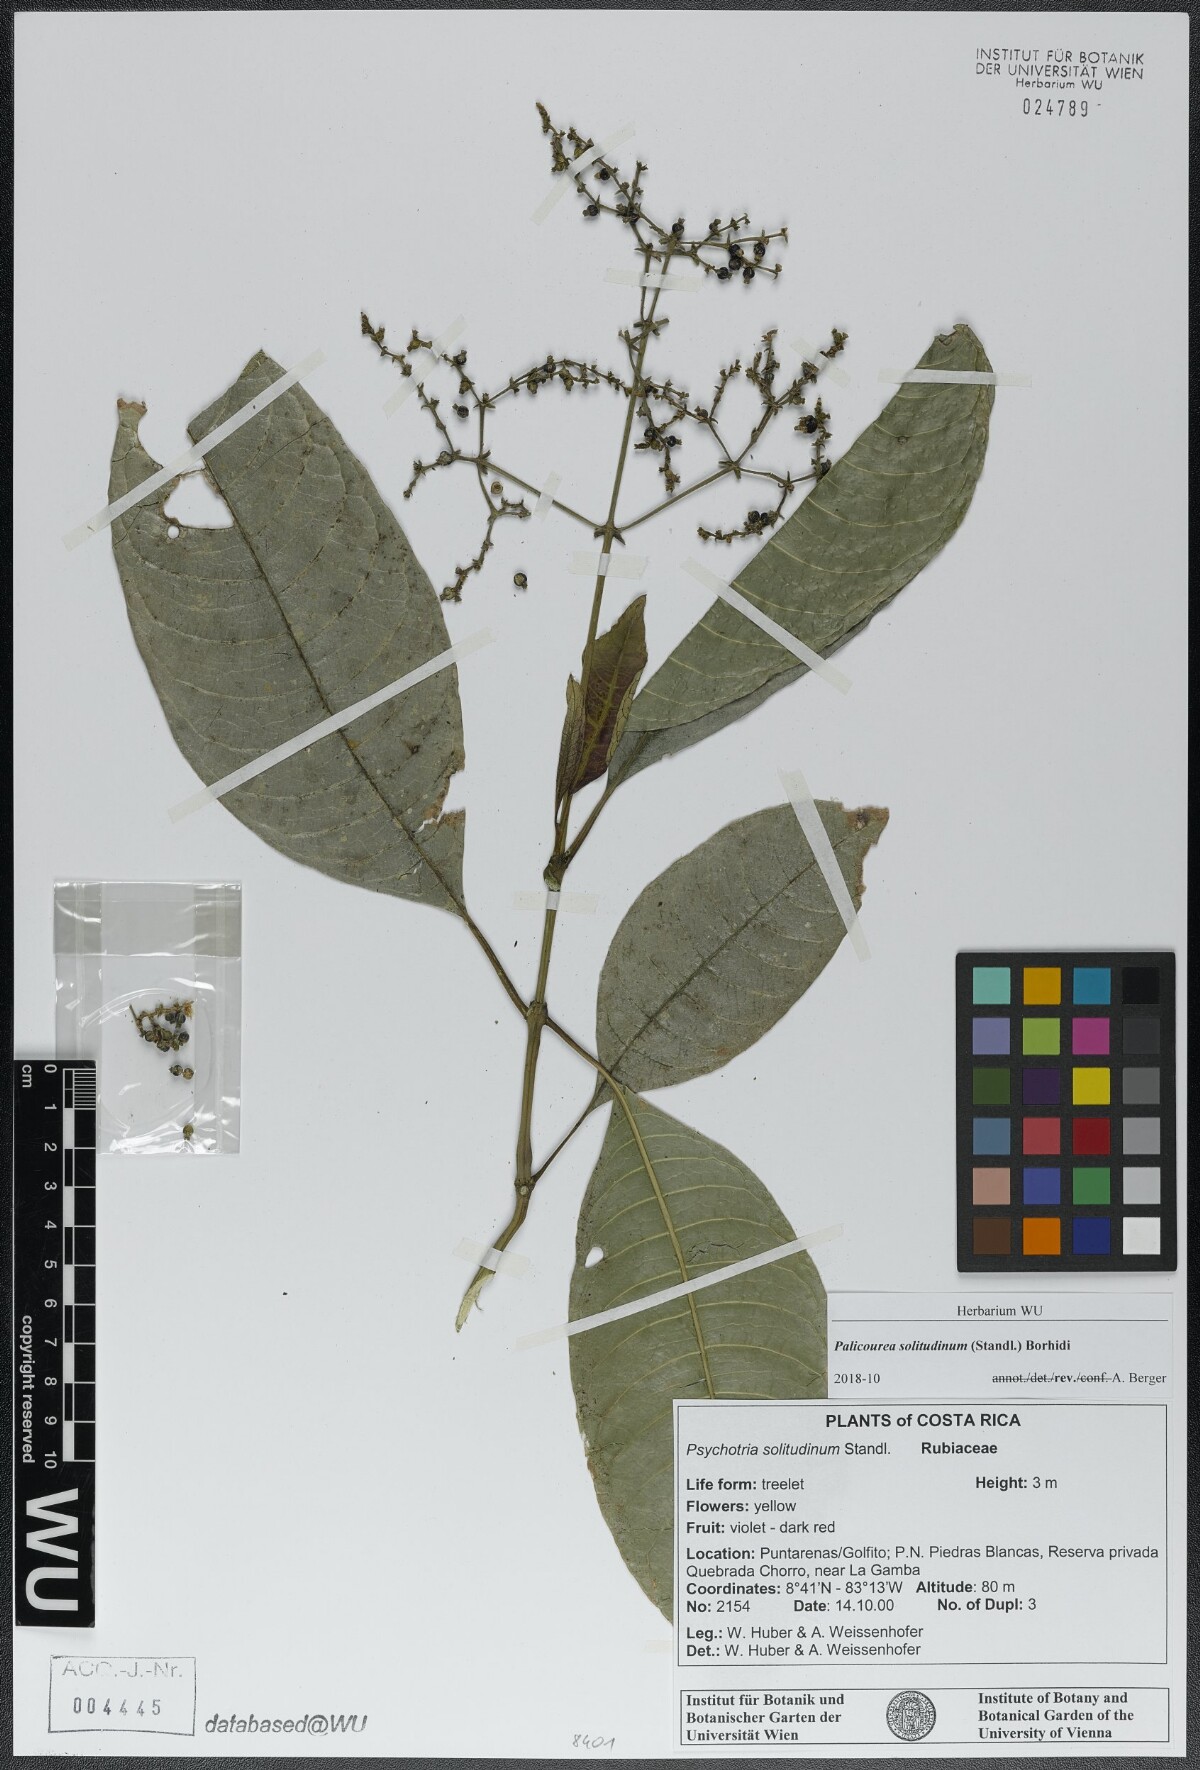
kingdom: Plantae
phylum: Tracheophyta
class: Magnoliopsida
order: Gentianales
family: Rubiaceae
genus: Palicourea
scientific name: Palicourea solitudinum
